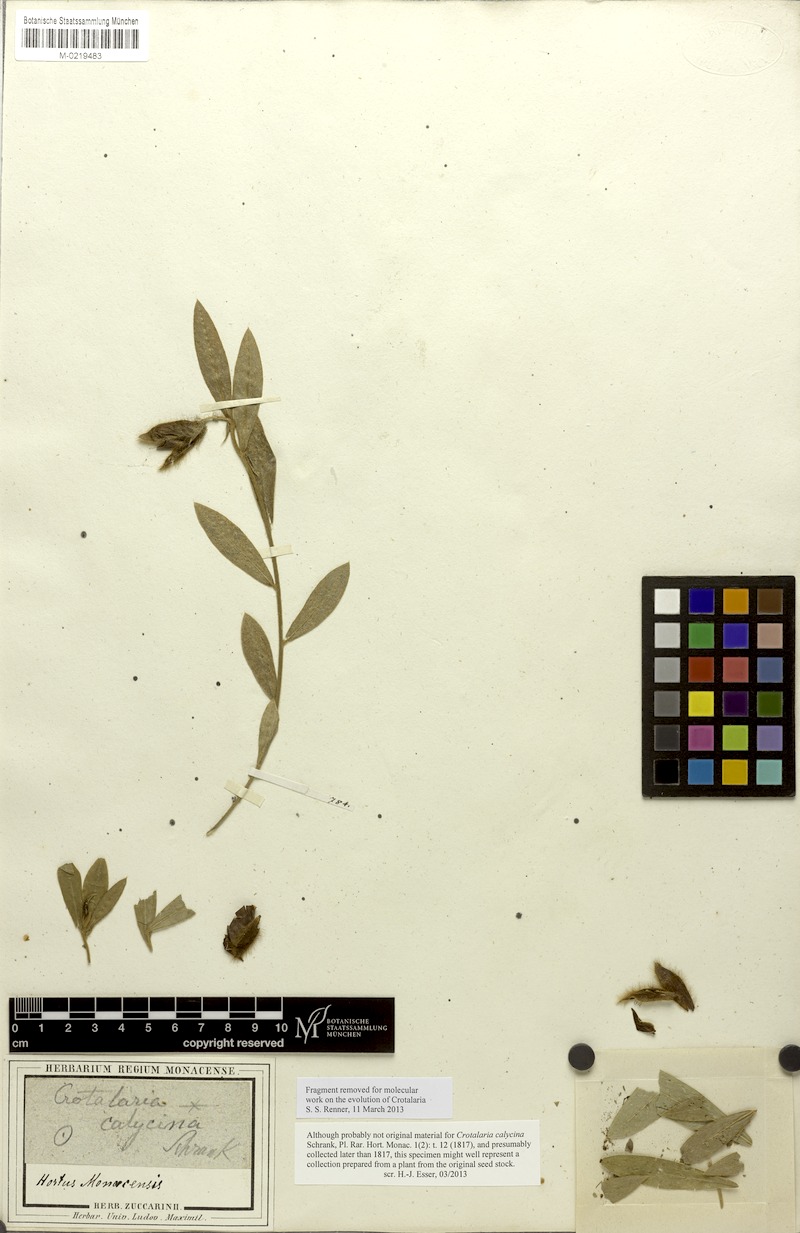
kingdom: Plantae
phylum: Tracheophyta
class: Magnoliopsida
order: Fabales
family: Fabaceae
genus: Crotalaria
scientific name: Crotalaria calycina
